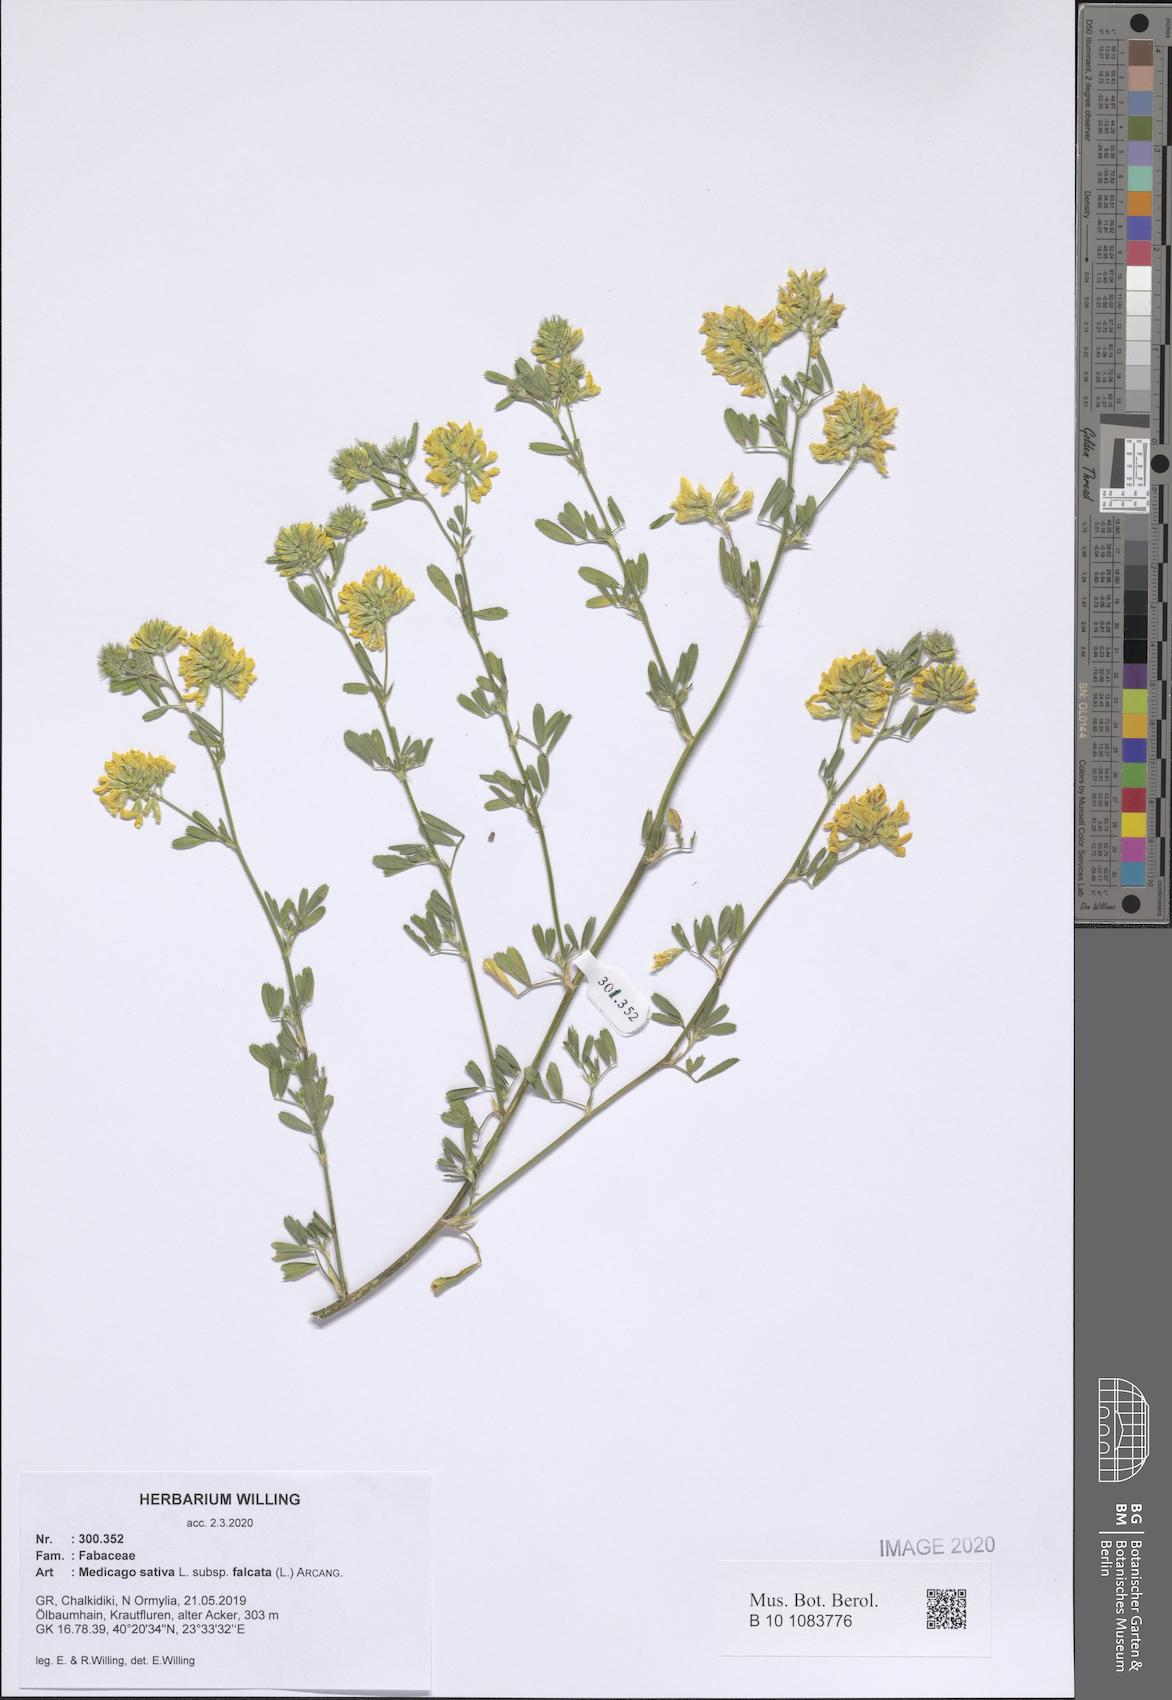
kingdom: Plantae
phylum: Tracheophyta
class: Magnoliopsida
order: Fabales
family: Fabaceae
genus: Medicago
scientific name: Medicago falcata
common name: Sickle medick
